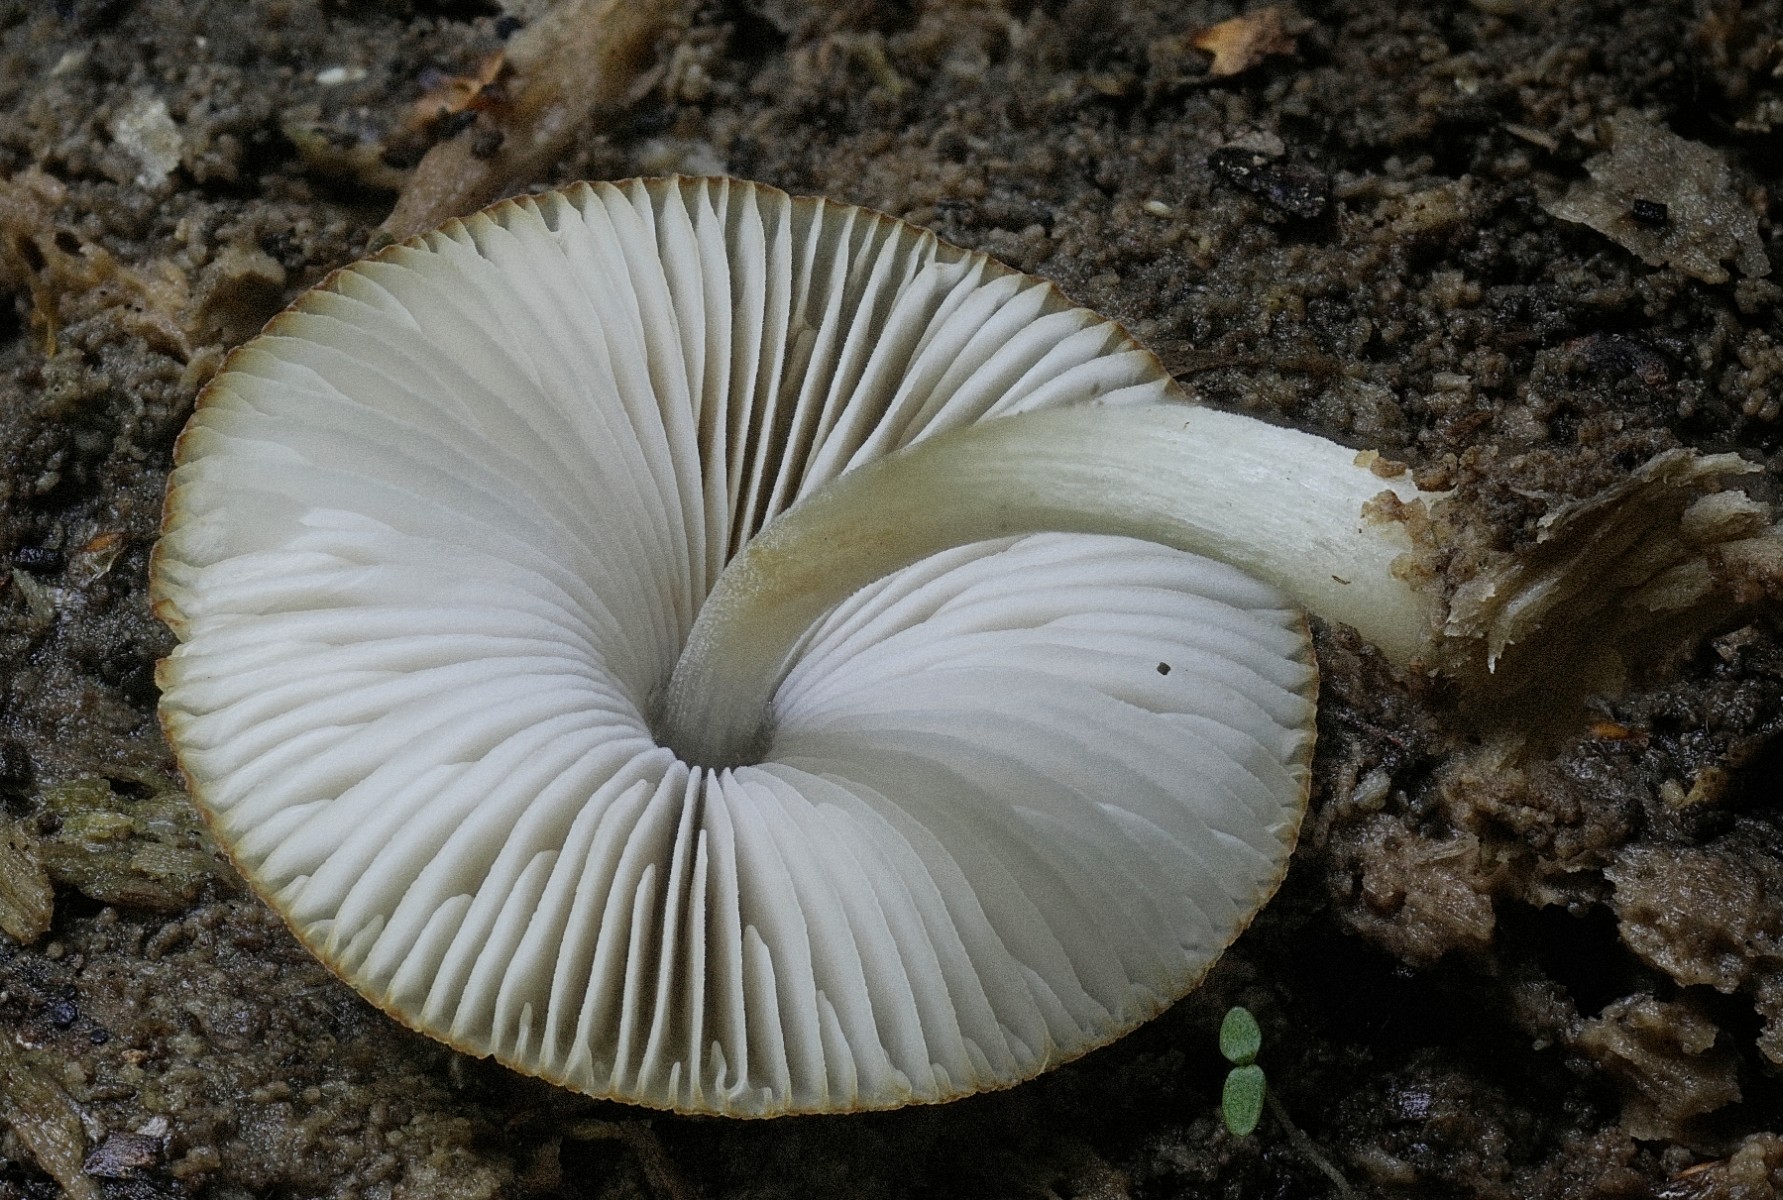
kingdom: Fungi
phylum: Basidiomycota
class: Agaricomycetes
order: Agaricales
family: Pluteaceae
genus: Pluteus
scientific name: Pluteus semibulbosus
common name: knoldet skærmhat
